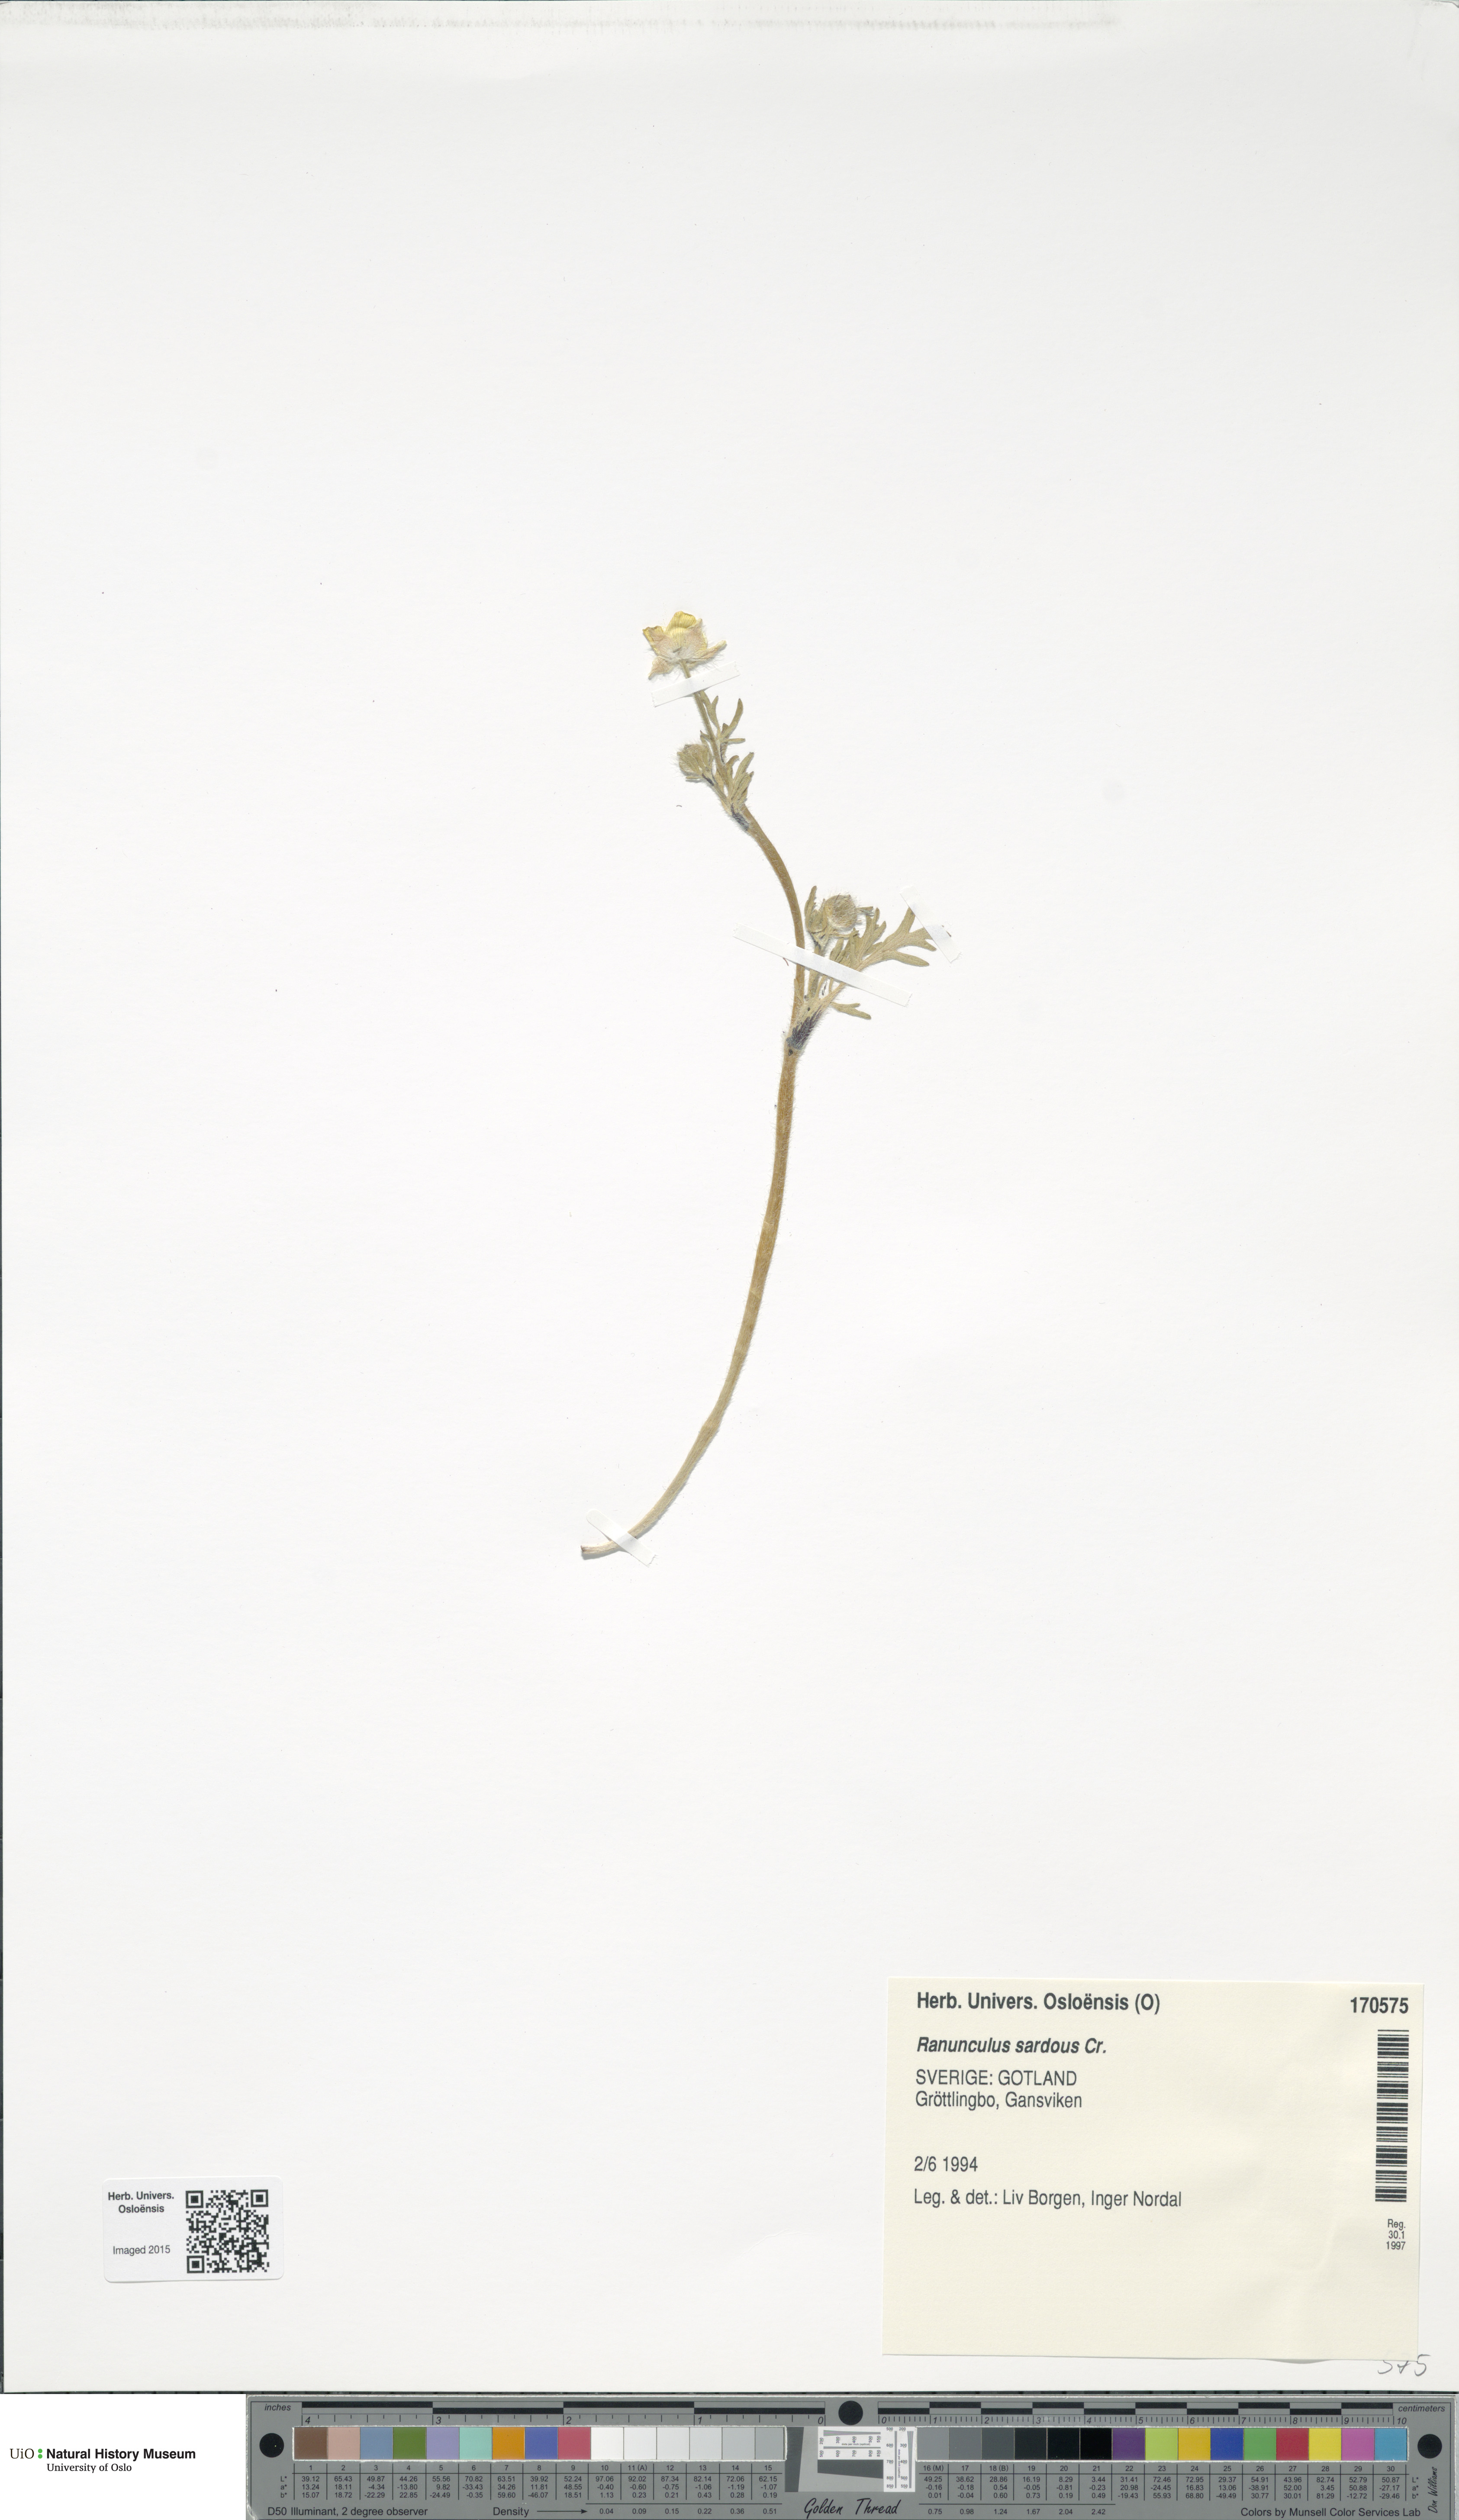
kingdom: Plantae
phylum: Tracheophyta
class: Magnoliopsida
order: Ranunculales
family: Ranunculaceae
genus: Ranunculus
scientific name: Ranunculus sardous
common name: Hairy buttercup
